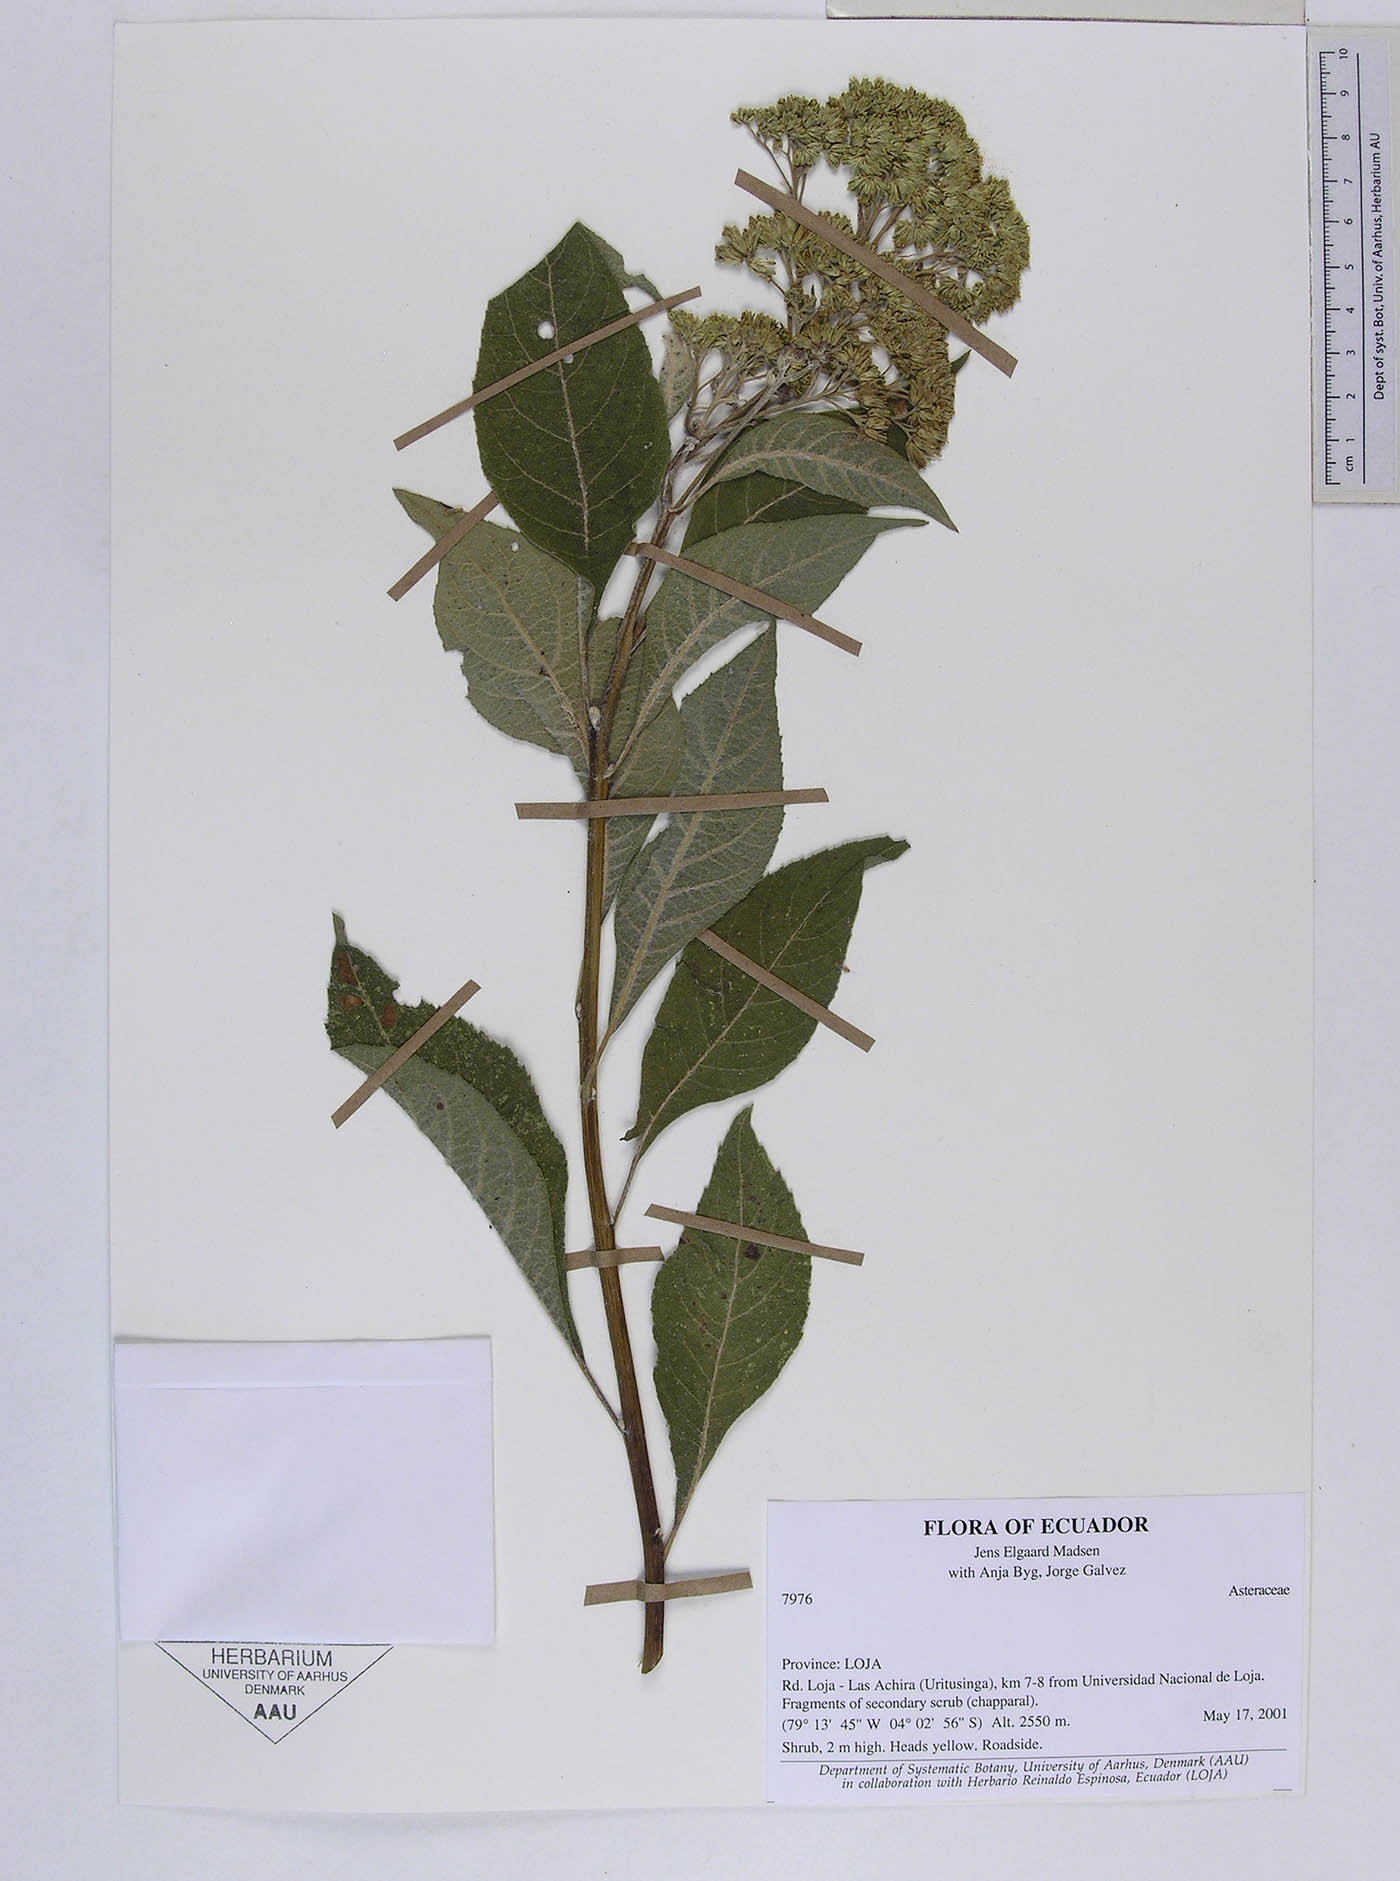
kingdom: Plantae
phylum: Tracheophyta
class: Magnoliopsida
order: Asterales
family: Asteraceae
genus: Verbesina
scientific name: Verbesina ayabacensis
